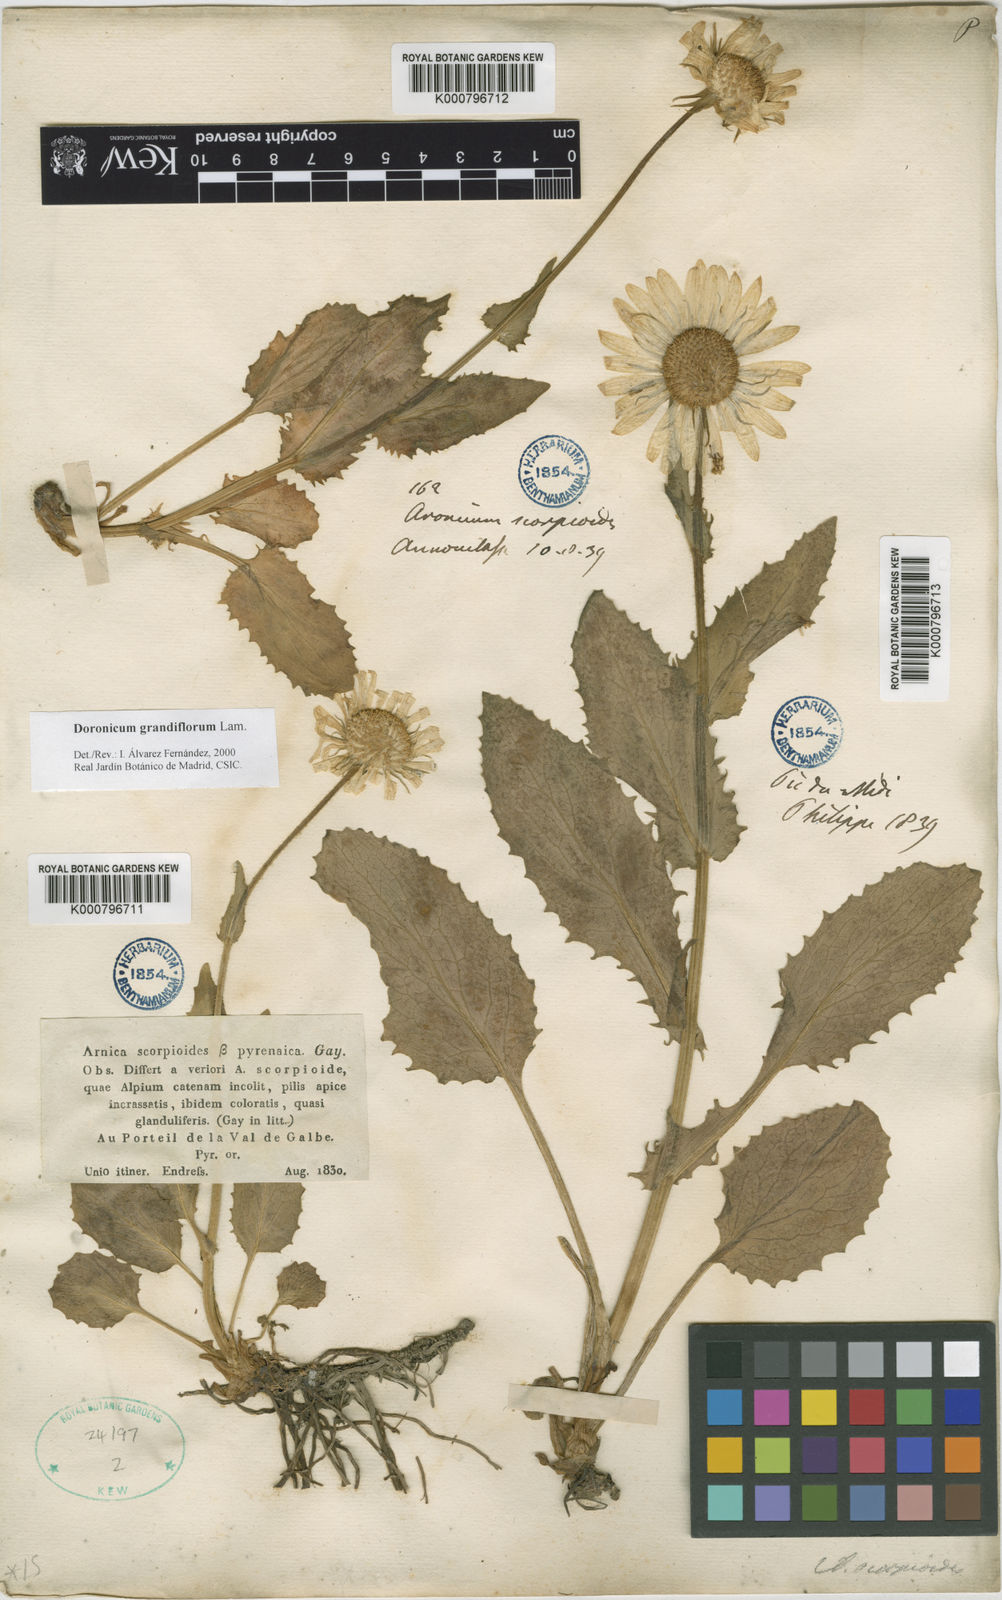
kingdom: Plantae
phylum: Tracheophyta
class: Magnoliopsida
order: Asterales
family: Asteraceae
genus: Doronicum
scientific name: Doronicum grandiflorum
